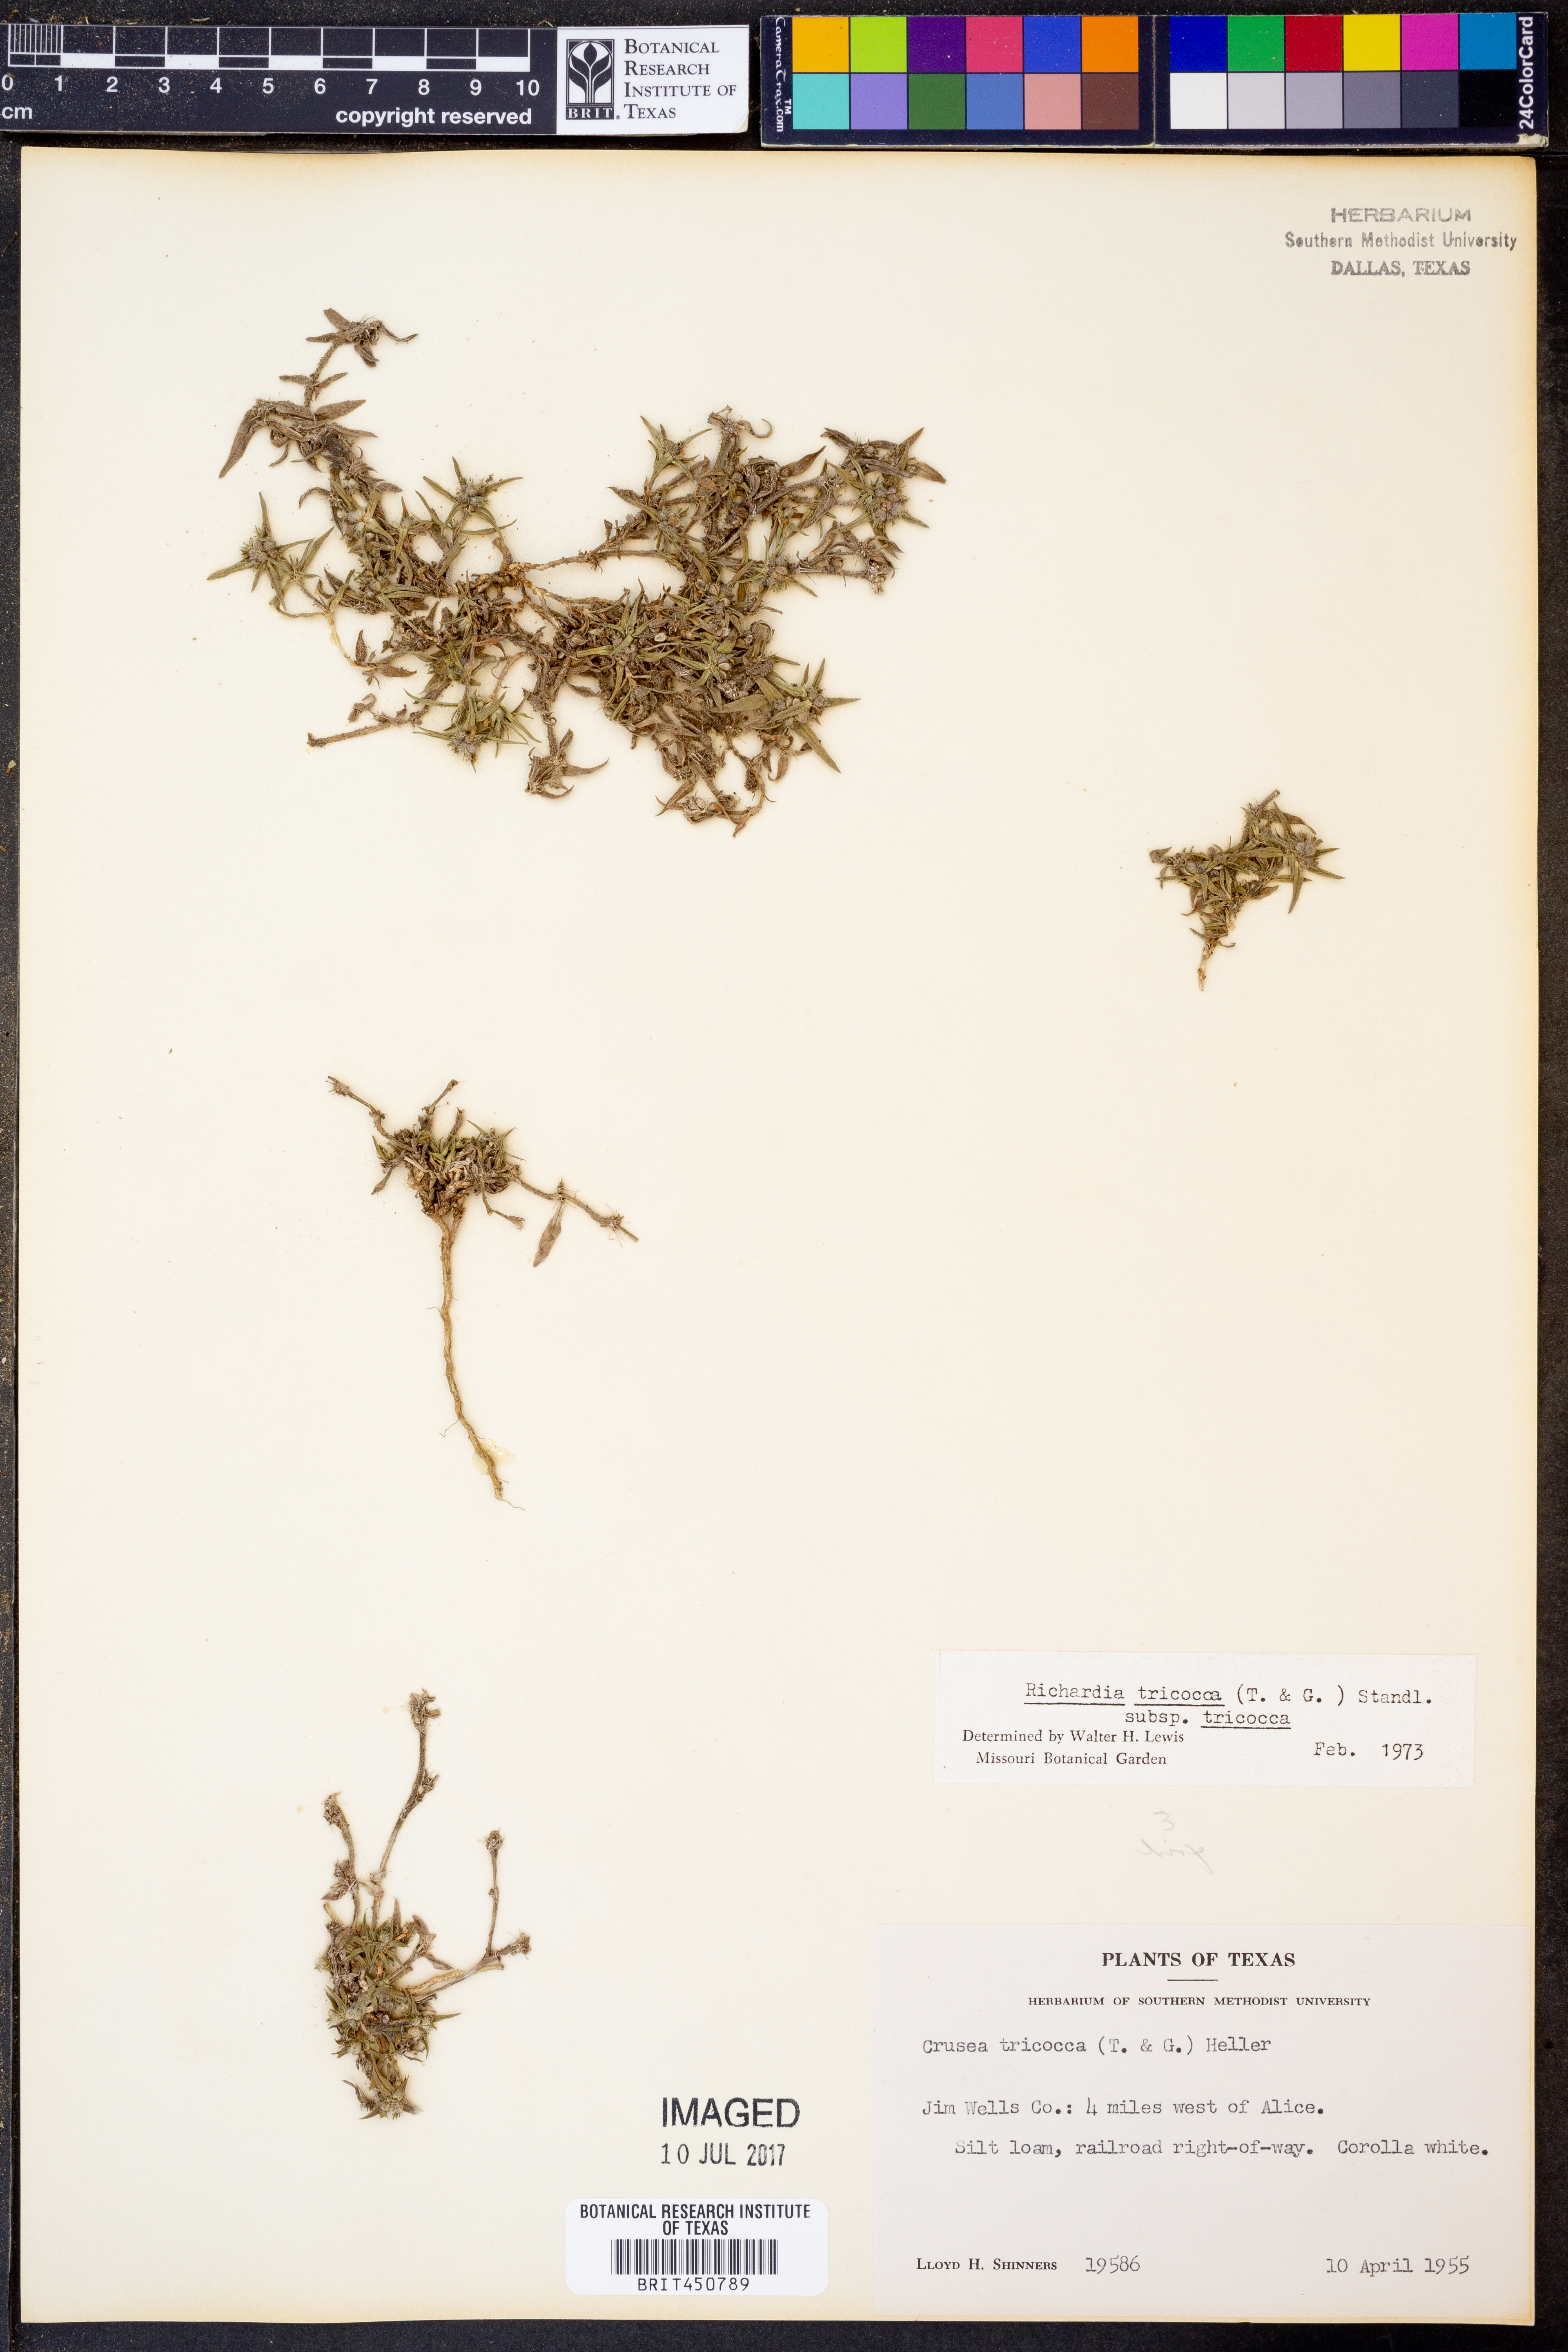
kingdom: Plantae
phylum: Tracheophyta
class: Magnoliopsida
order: Gentianales
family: Rubiaceae
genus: Richardia
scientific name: Richardia tricocca
